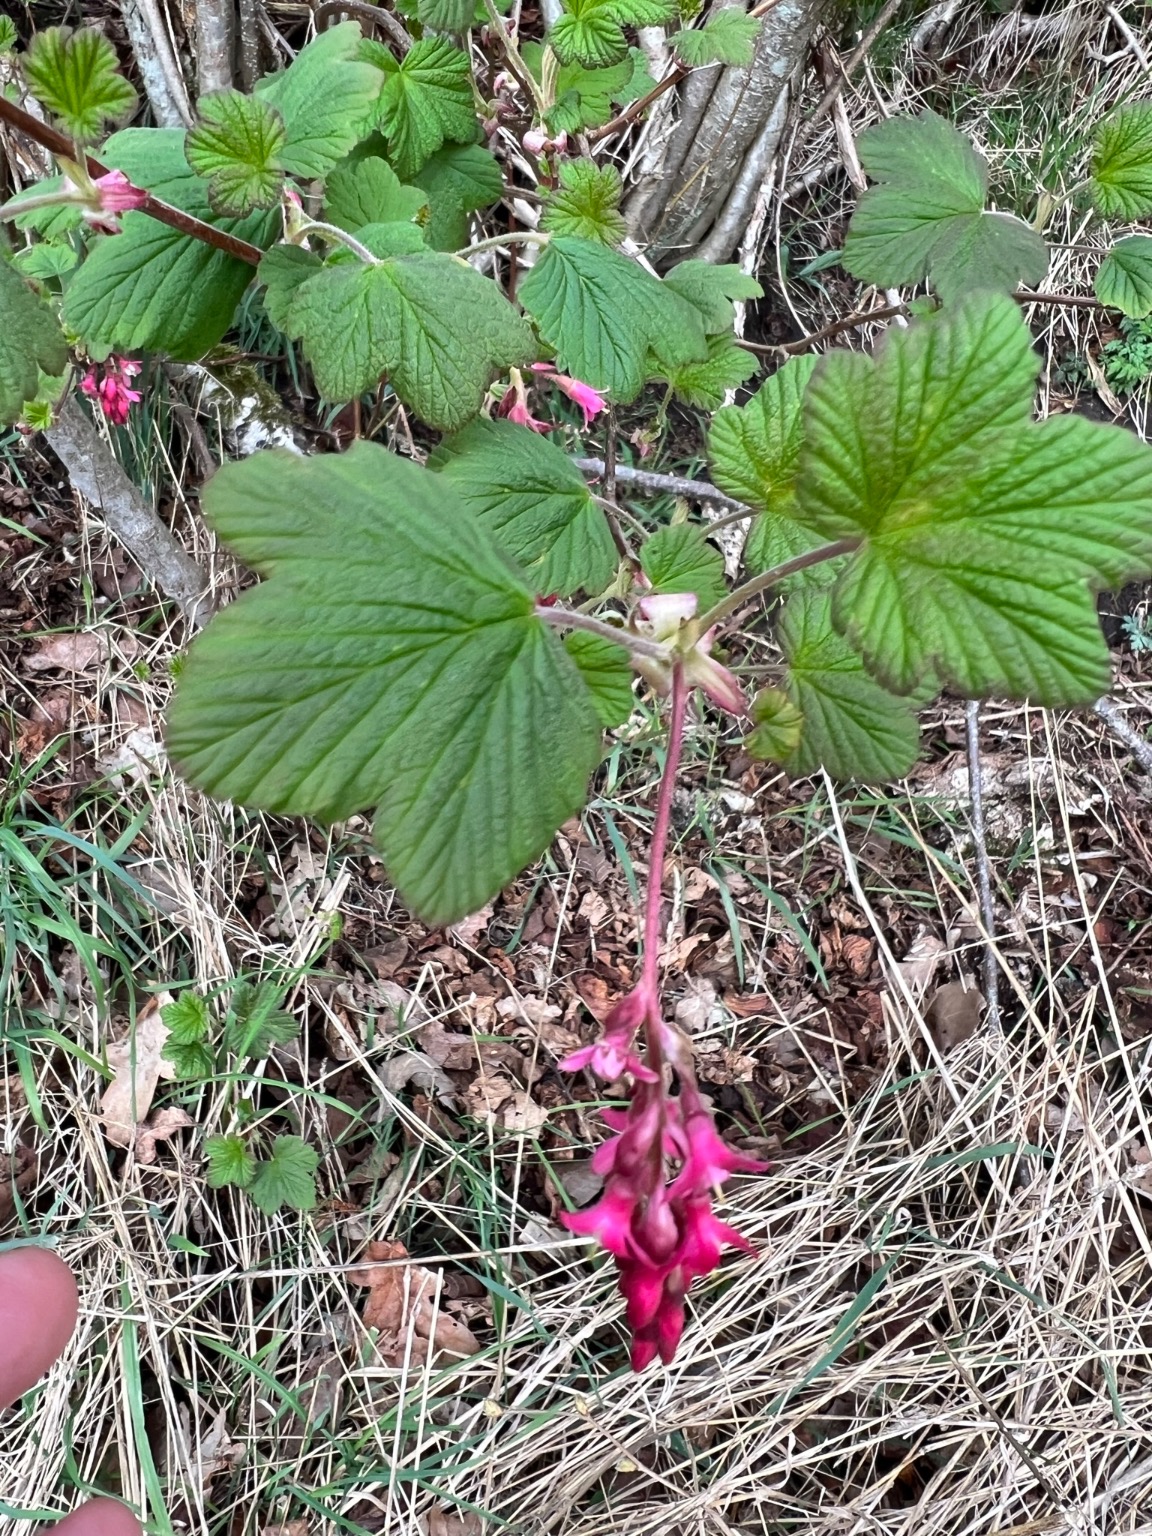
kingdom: Plantae
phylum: Tracheophyta
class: Magnoliopsida
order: Saxifragales
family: Grossulariaceae
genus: Ribes
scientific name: Ribes sanguineum
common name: Blod-ribs
